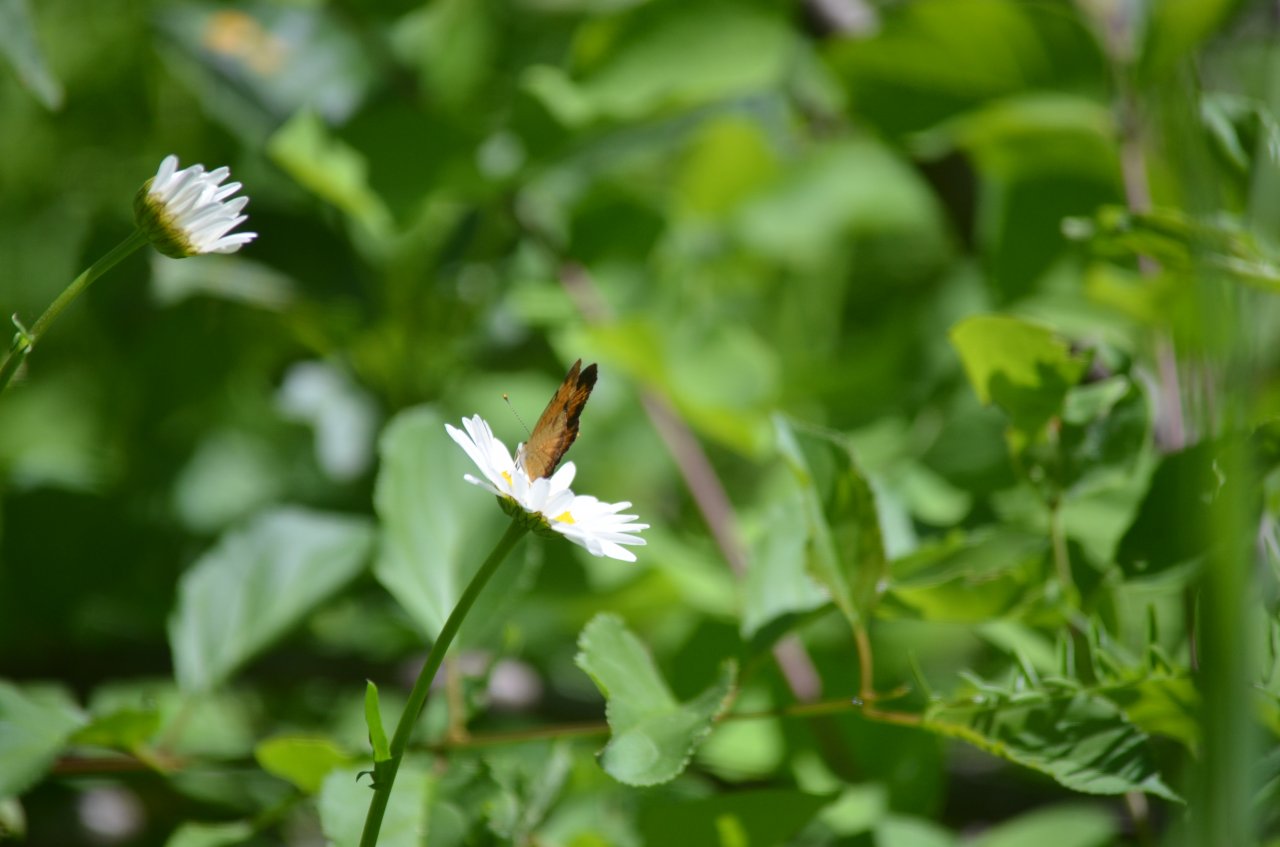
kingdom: Animalia
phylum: Arthropoda
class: Insecta
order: Lepidoptera
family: Nymphalidae
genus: Phyciodes
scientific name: Phyciodes tharos
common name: Northern Crescent
